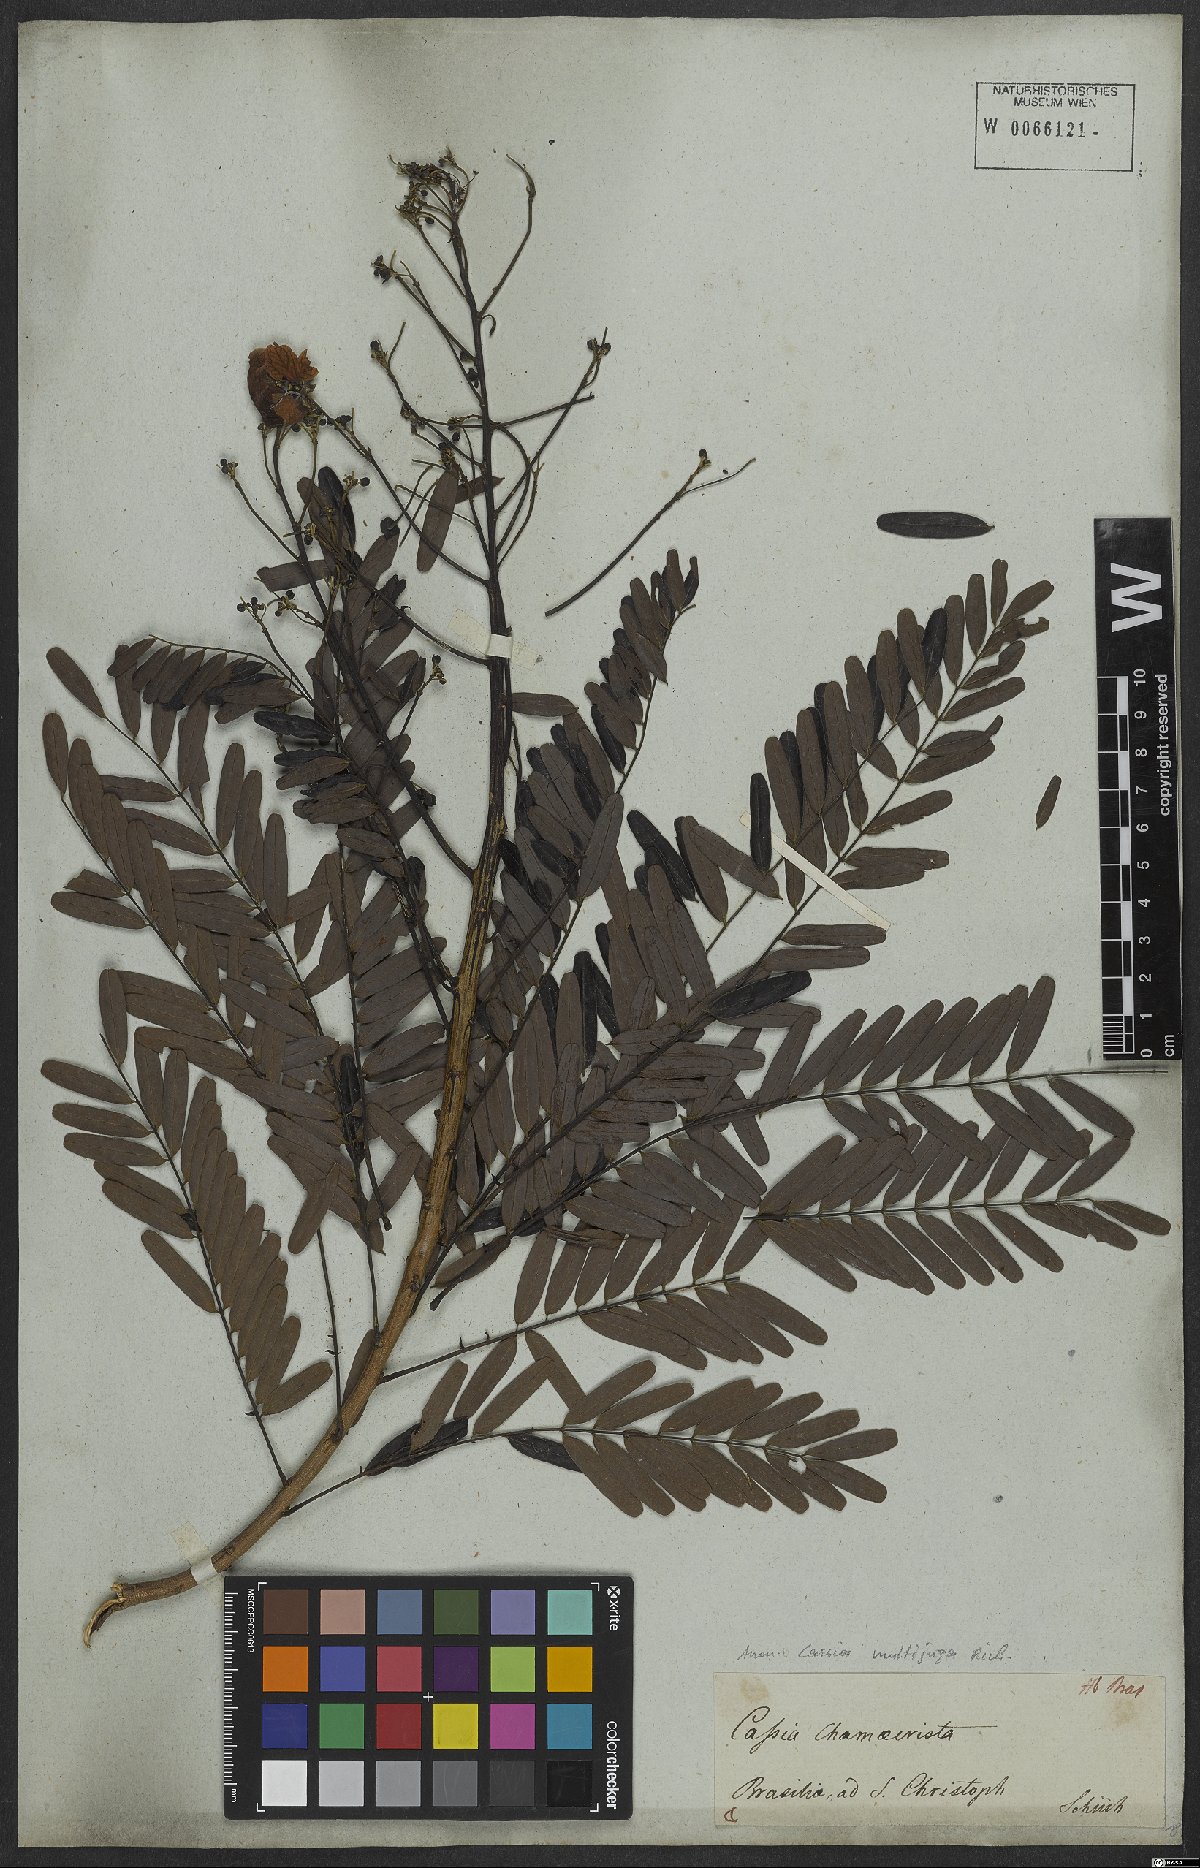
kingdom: Plantae
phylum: Tracheophyta
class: Magnoliopsida
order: Fabales
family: Fabaceae
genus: Senna
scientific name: Senna multijuga
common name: False sicklepod
